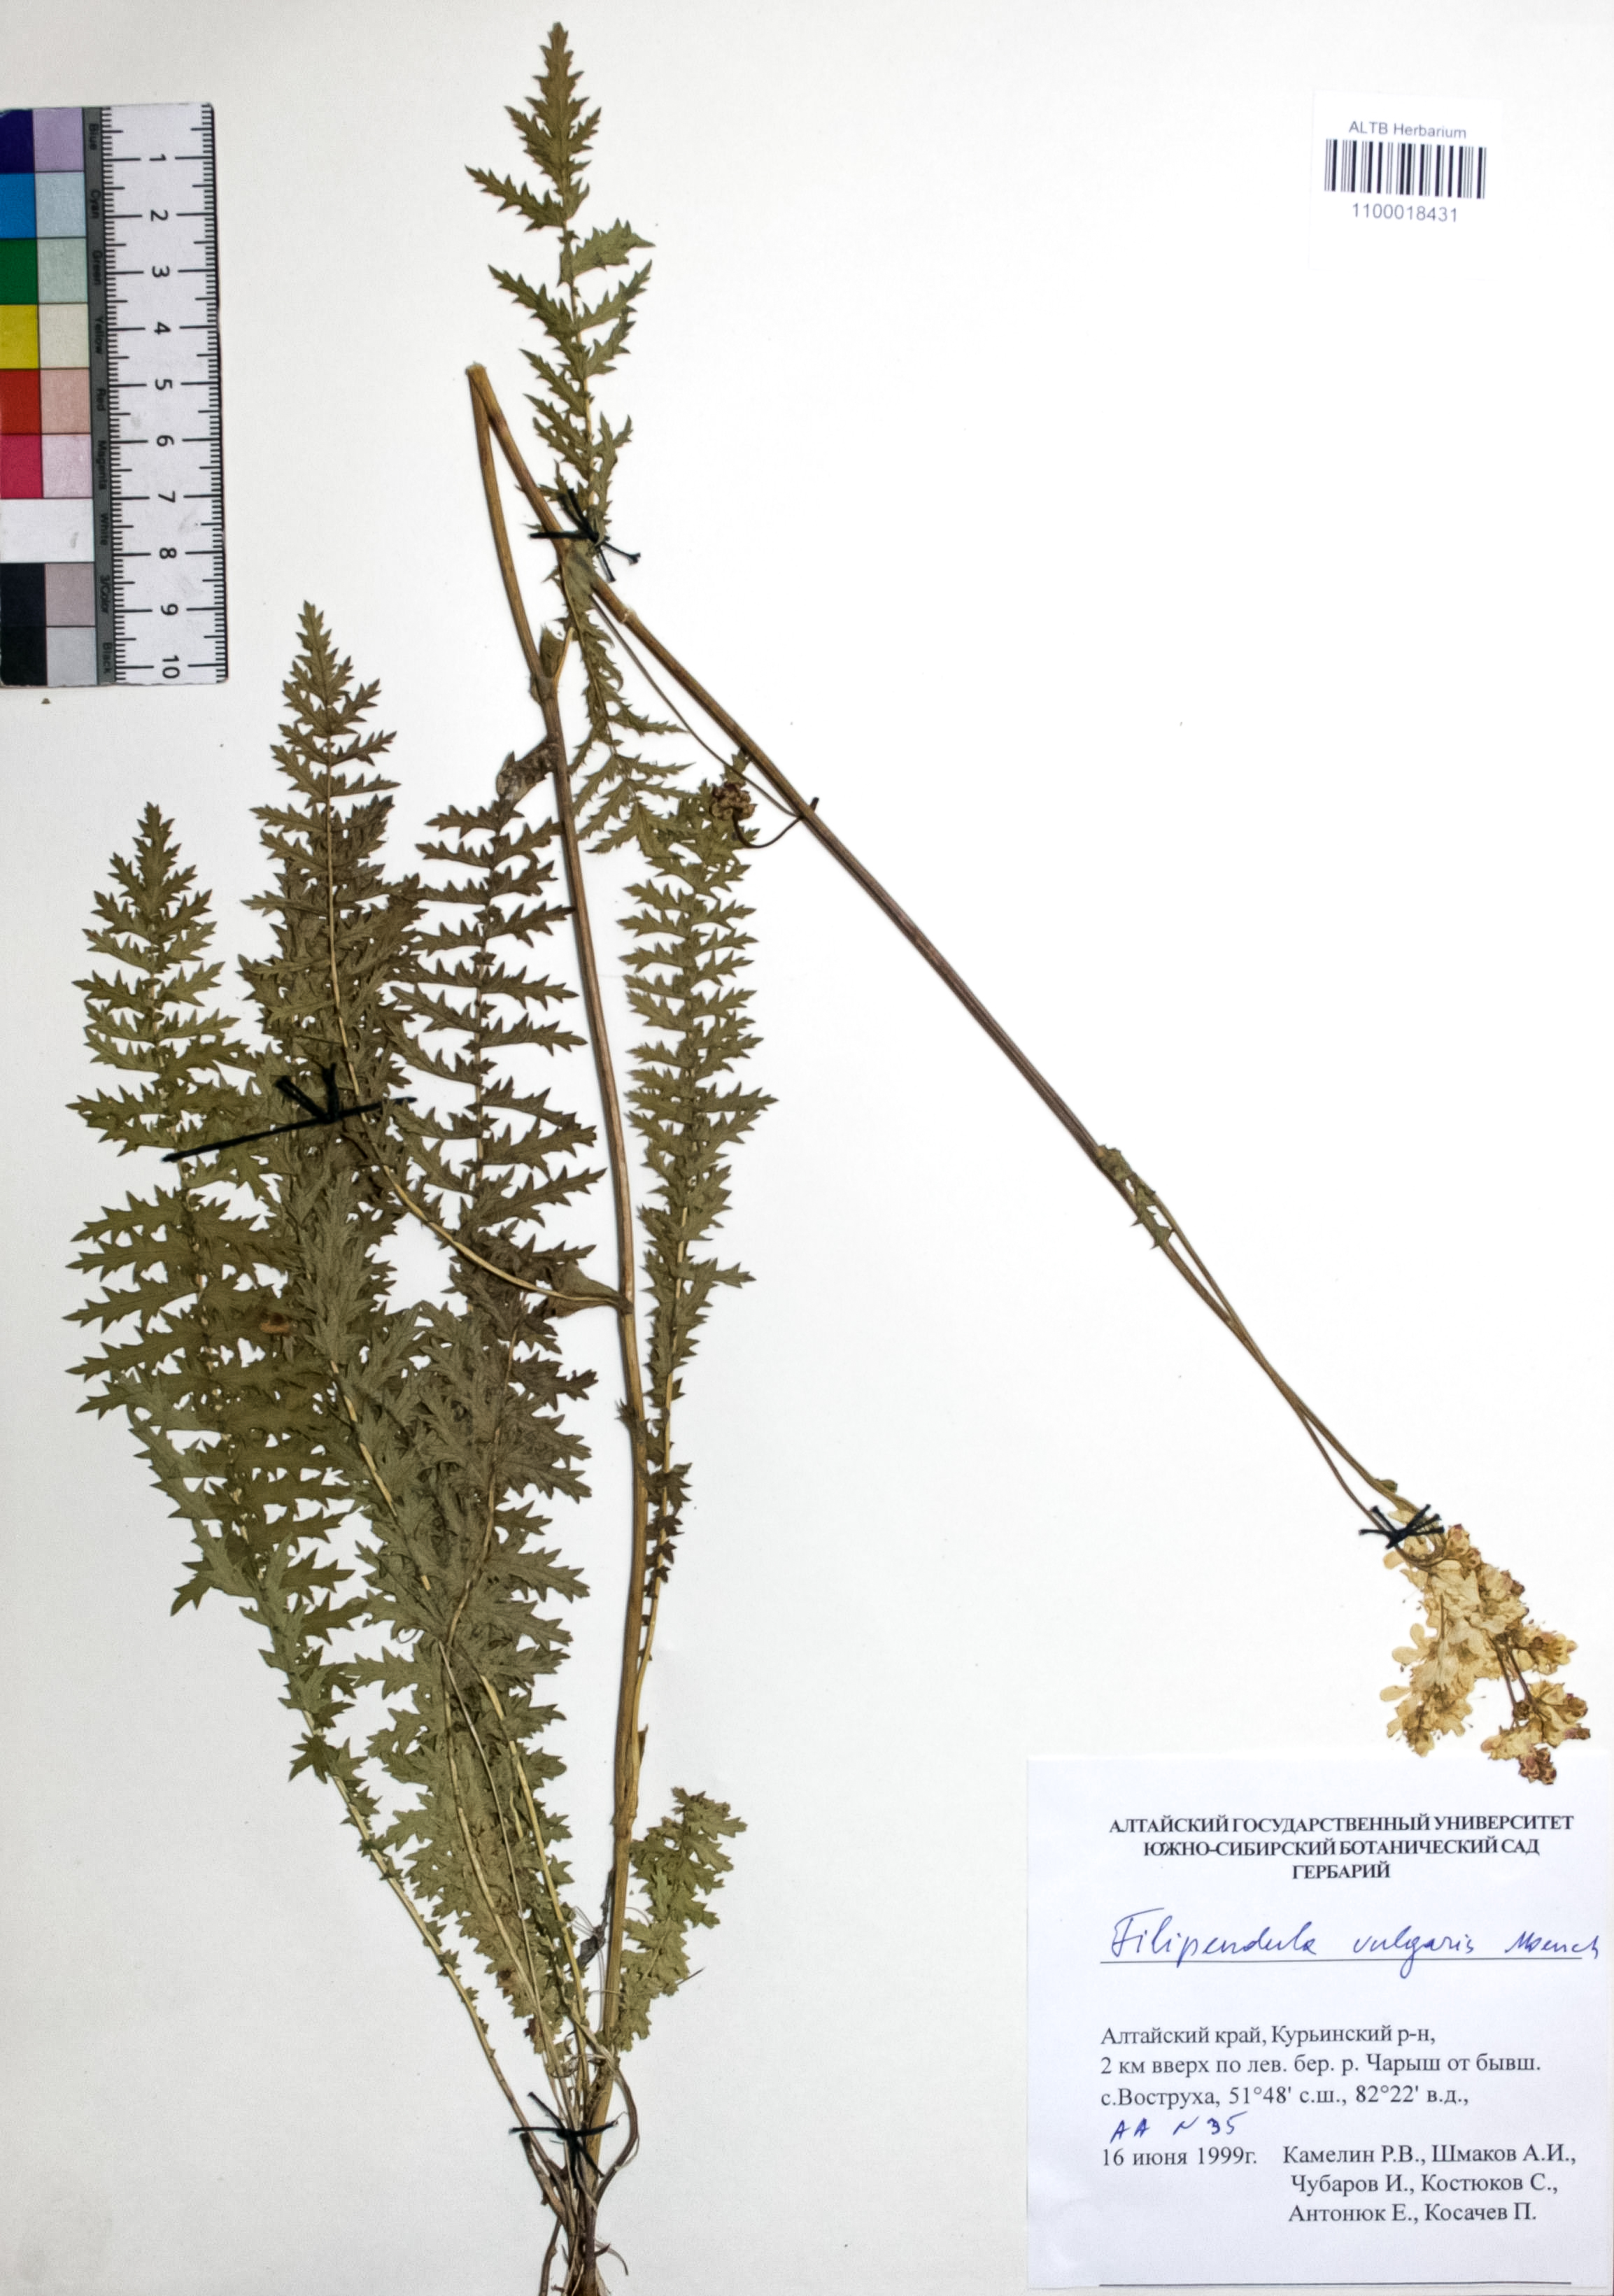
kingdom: Plantae
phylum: Tracheophyta
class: Magnoliopsida
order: Rosales
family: Rosaceae
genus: Filipendula
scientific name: Filipendula vulgaris
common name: Dropwort
